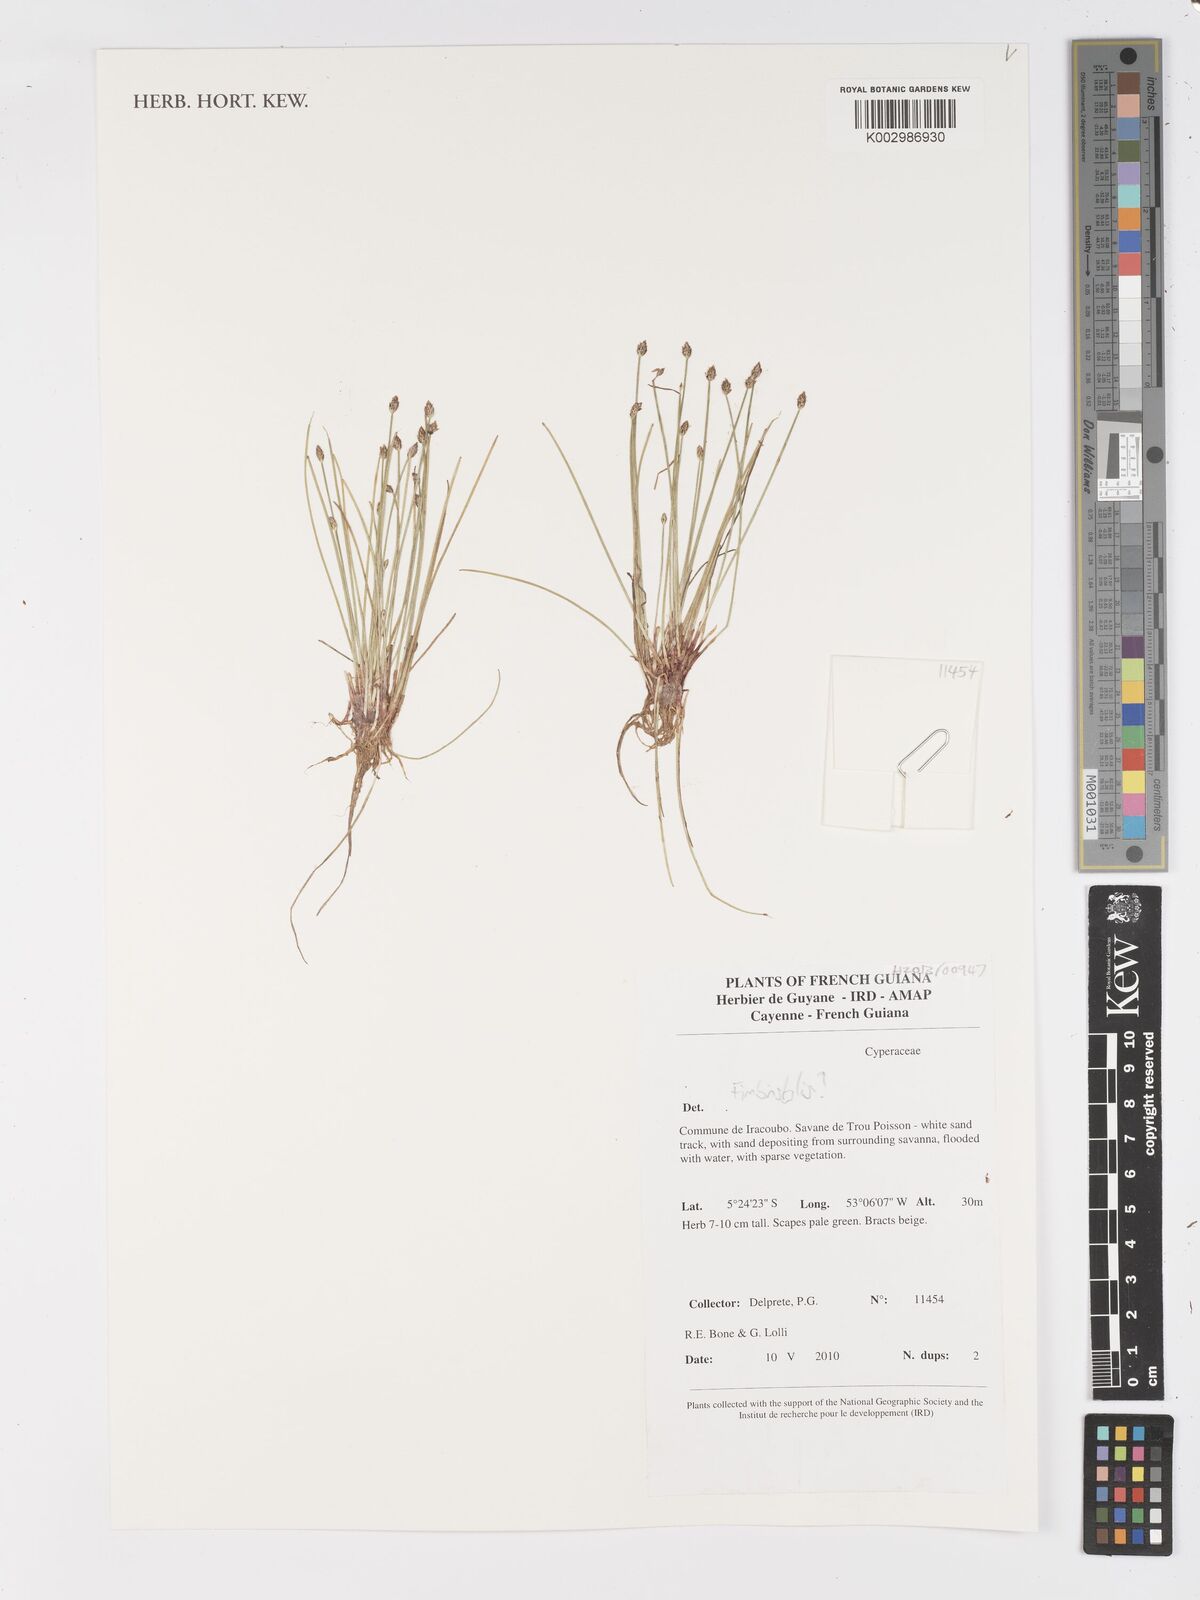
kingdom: Plantae
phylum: Tracheophyta
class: Liliopsida
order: Poales
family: Cyperaceae
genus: Fimbristylis
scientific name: Fimbristylis
